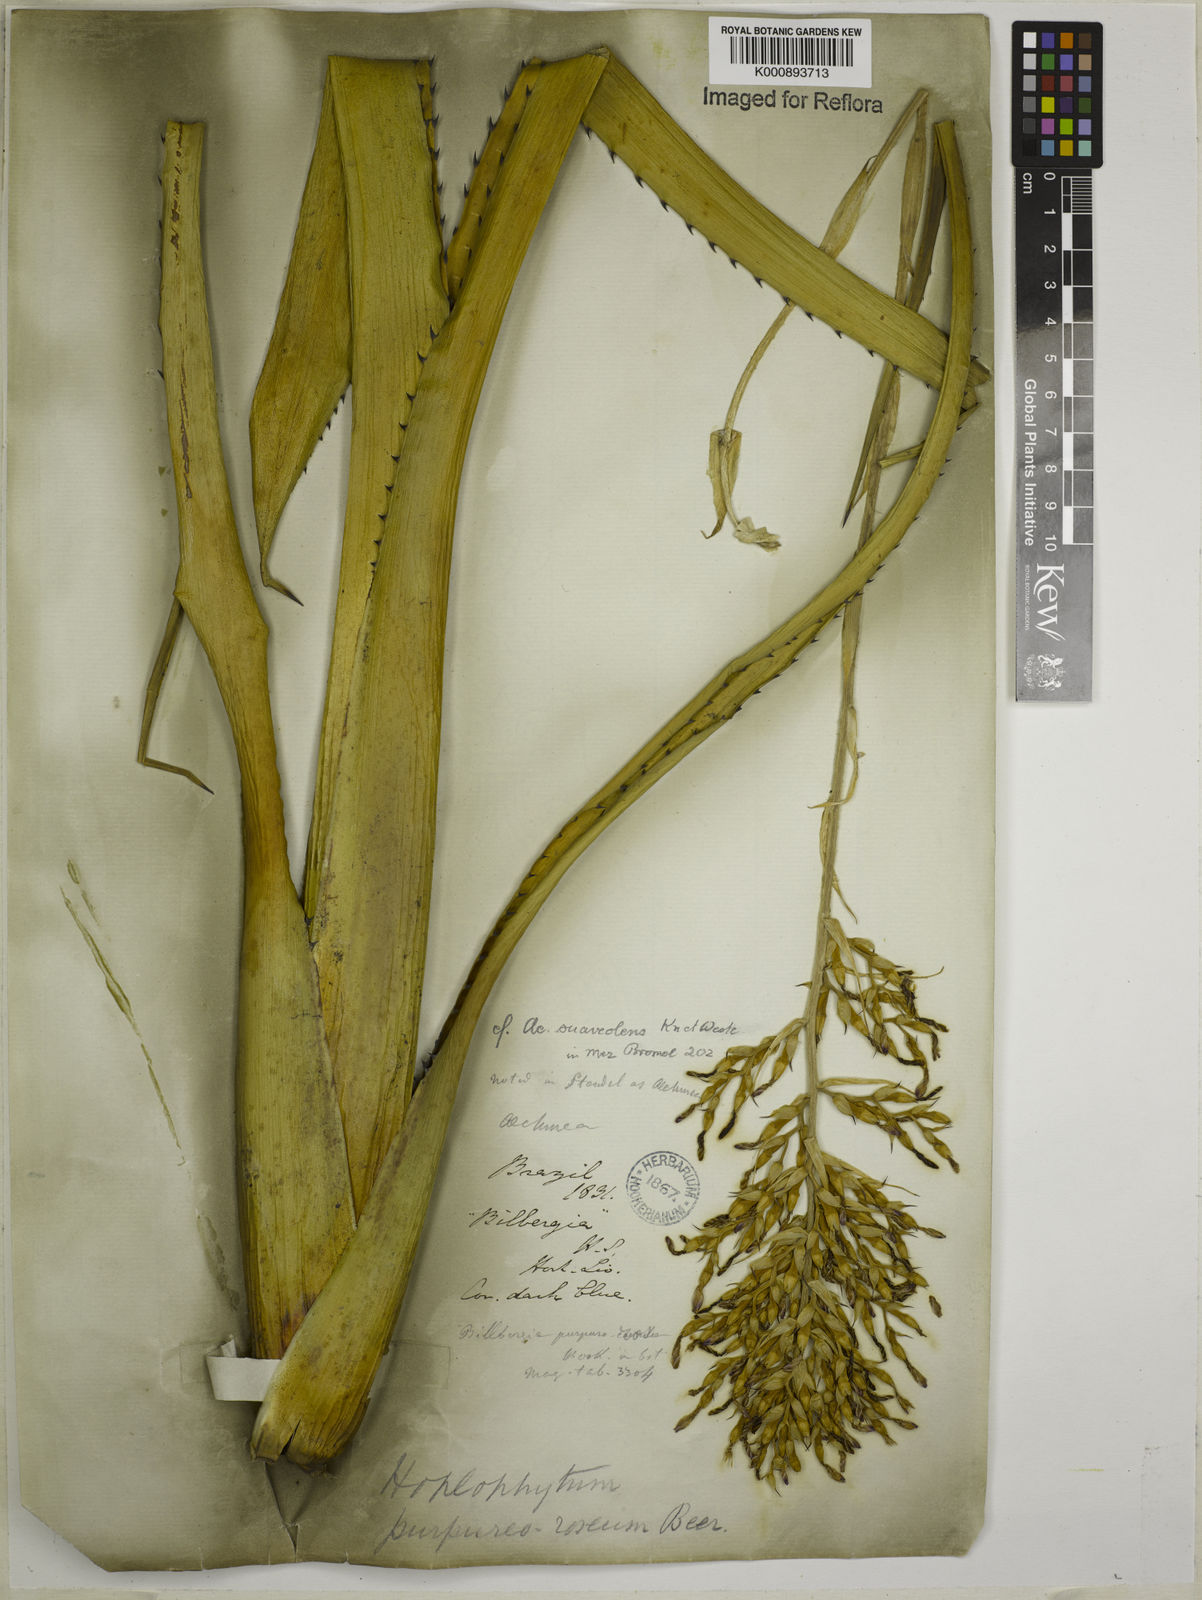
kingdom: Plantae
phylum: Tracheophyta
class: Liliopsida
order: Poales
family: Bromeliaceae
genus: Aechmea
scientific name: Aechmea
